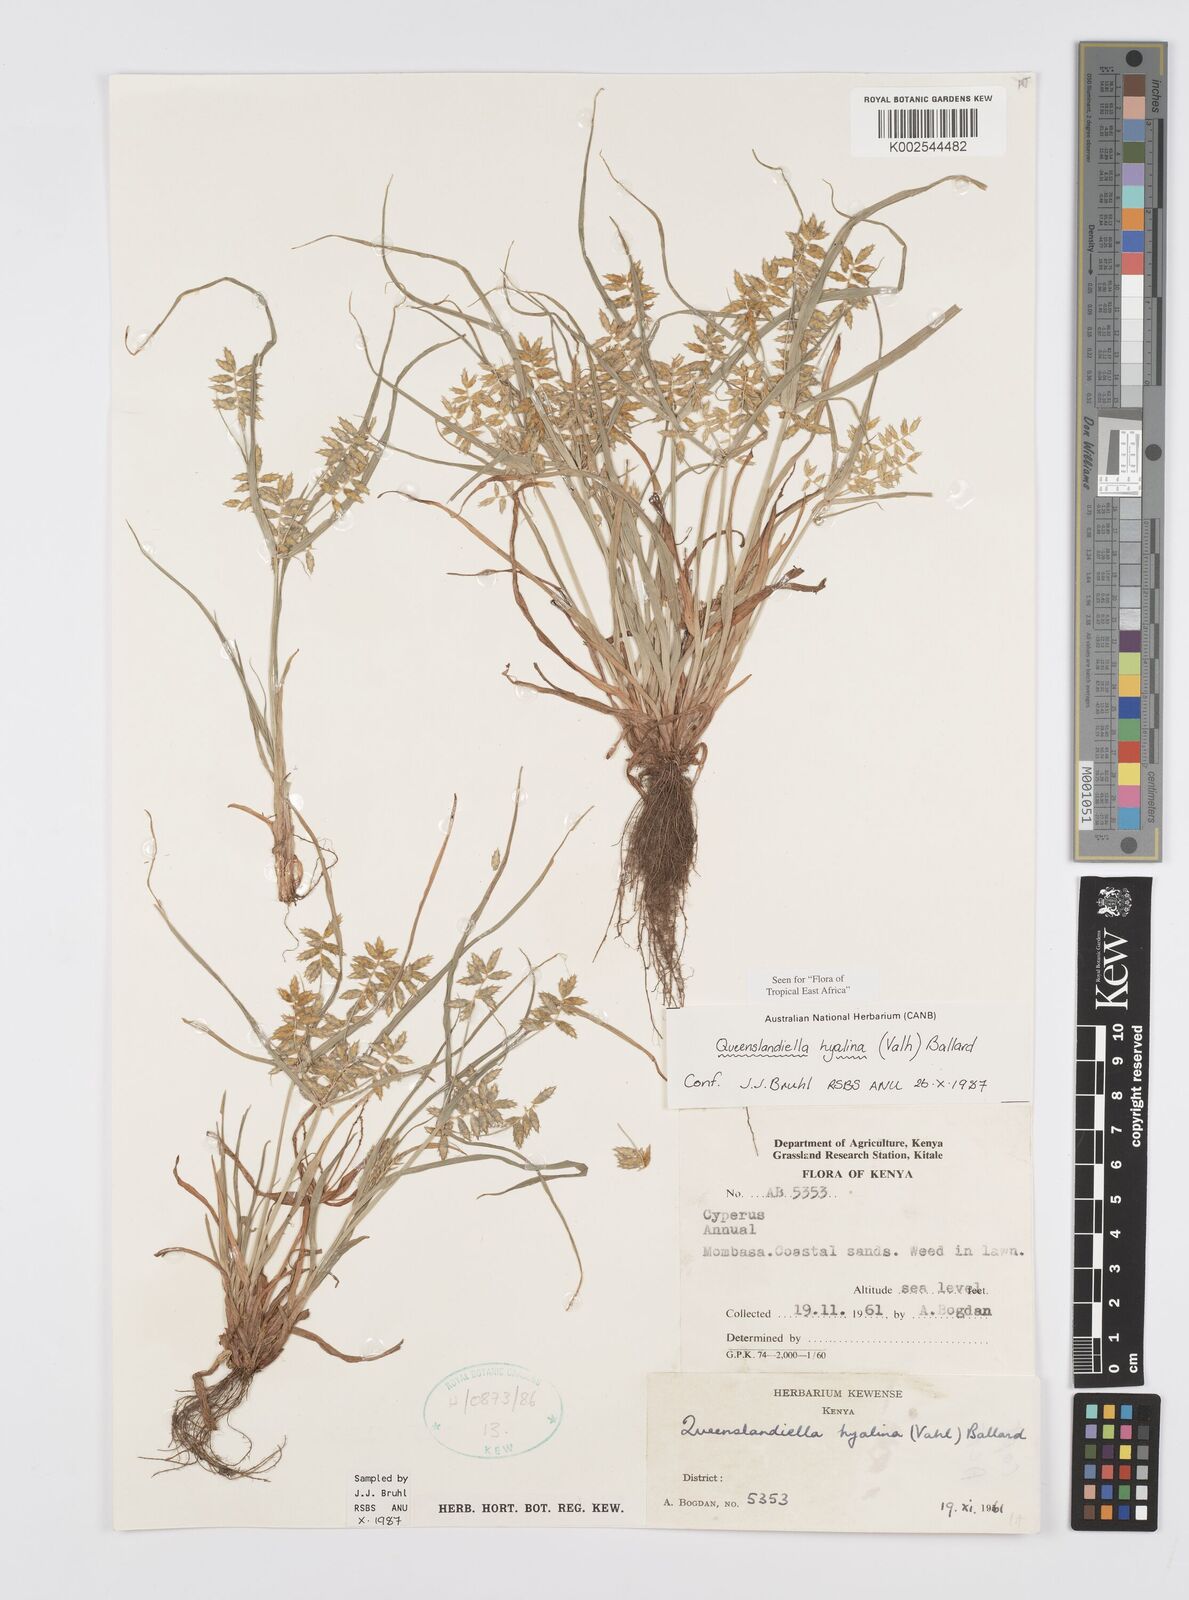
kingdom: Plantae
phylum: Tracheophyta
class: Liliopsida
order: Poales
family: Cyperaceae
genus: Cyperus
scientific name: Cyperus hyalinus
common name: Queensland sedge
